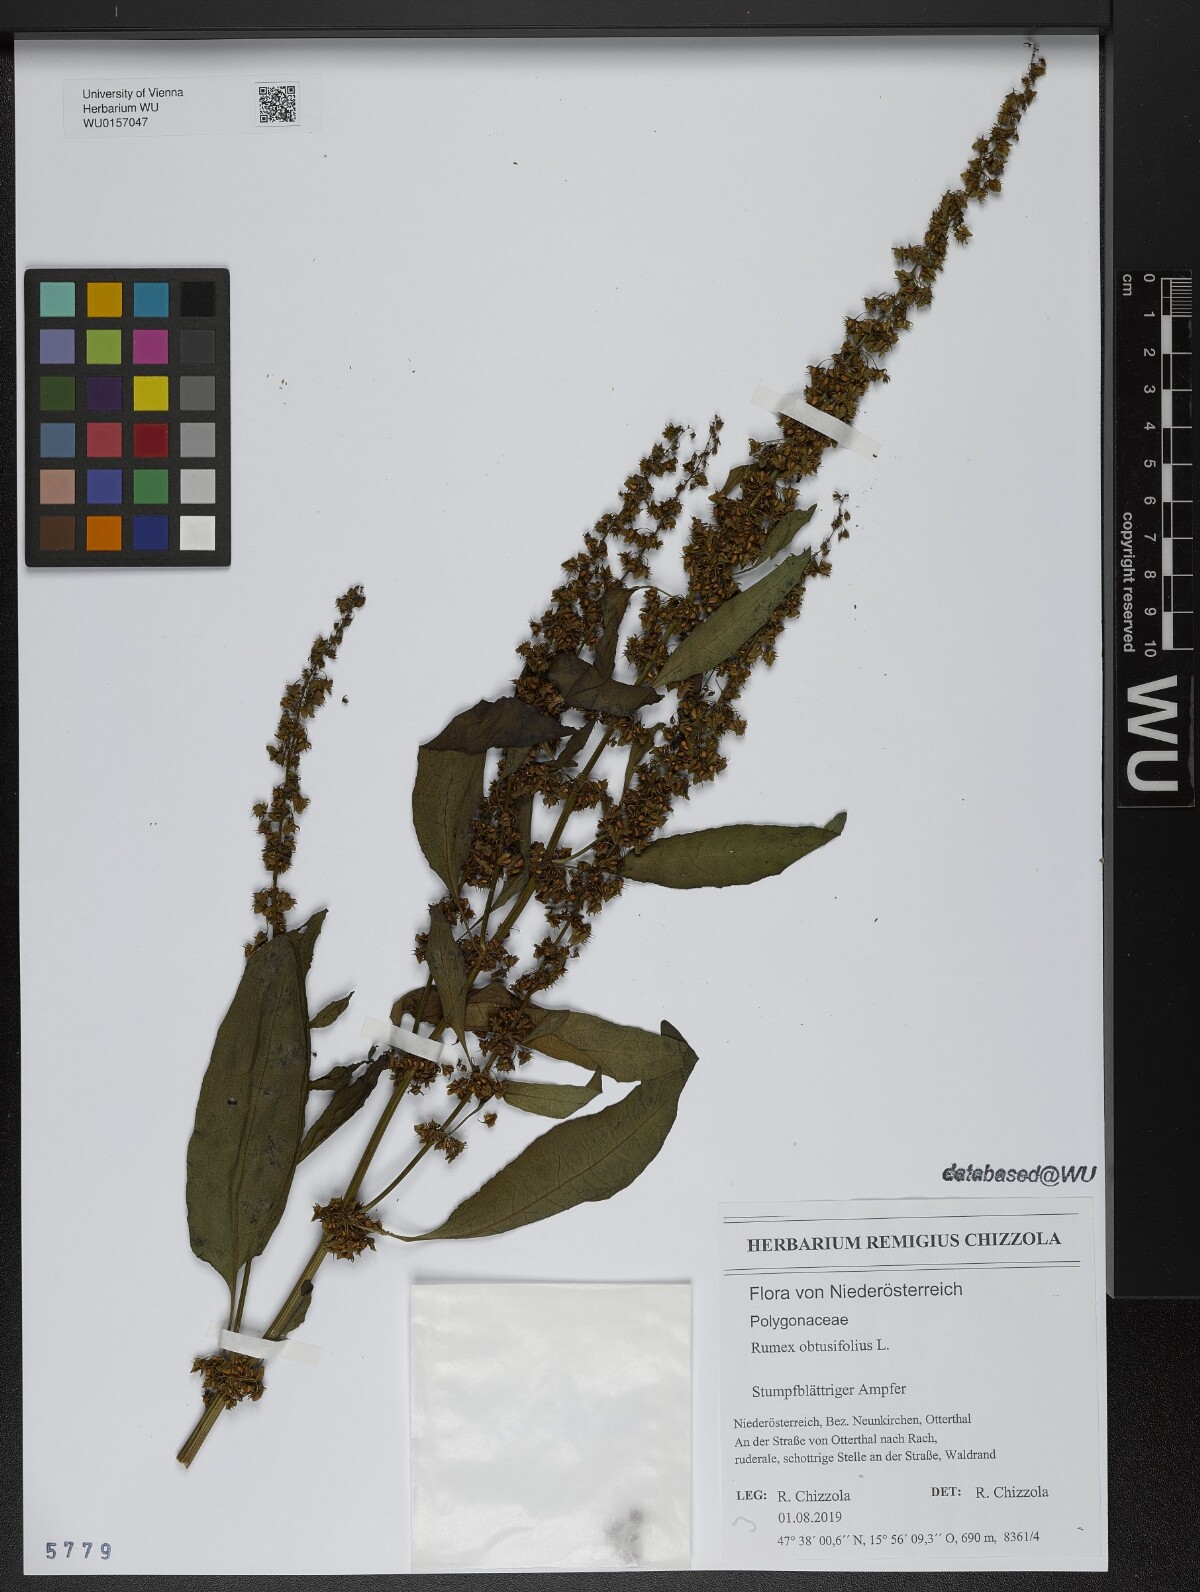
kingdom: Plantae
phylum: Tracheophyta
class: Magnoliopsida
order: Caryophyllales
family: Polygonaceae
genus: Rumex
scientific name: Rumex obtusifolius
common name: Bitter dock
